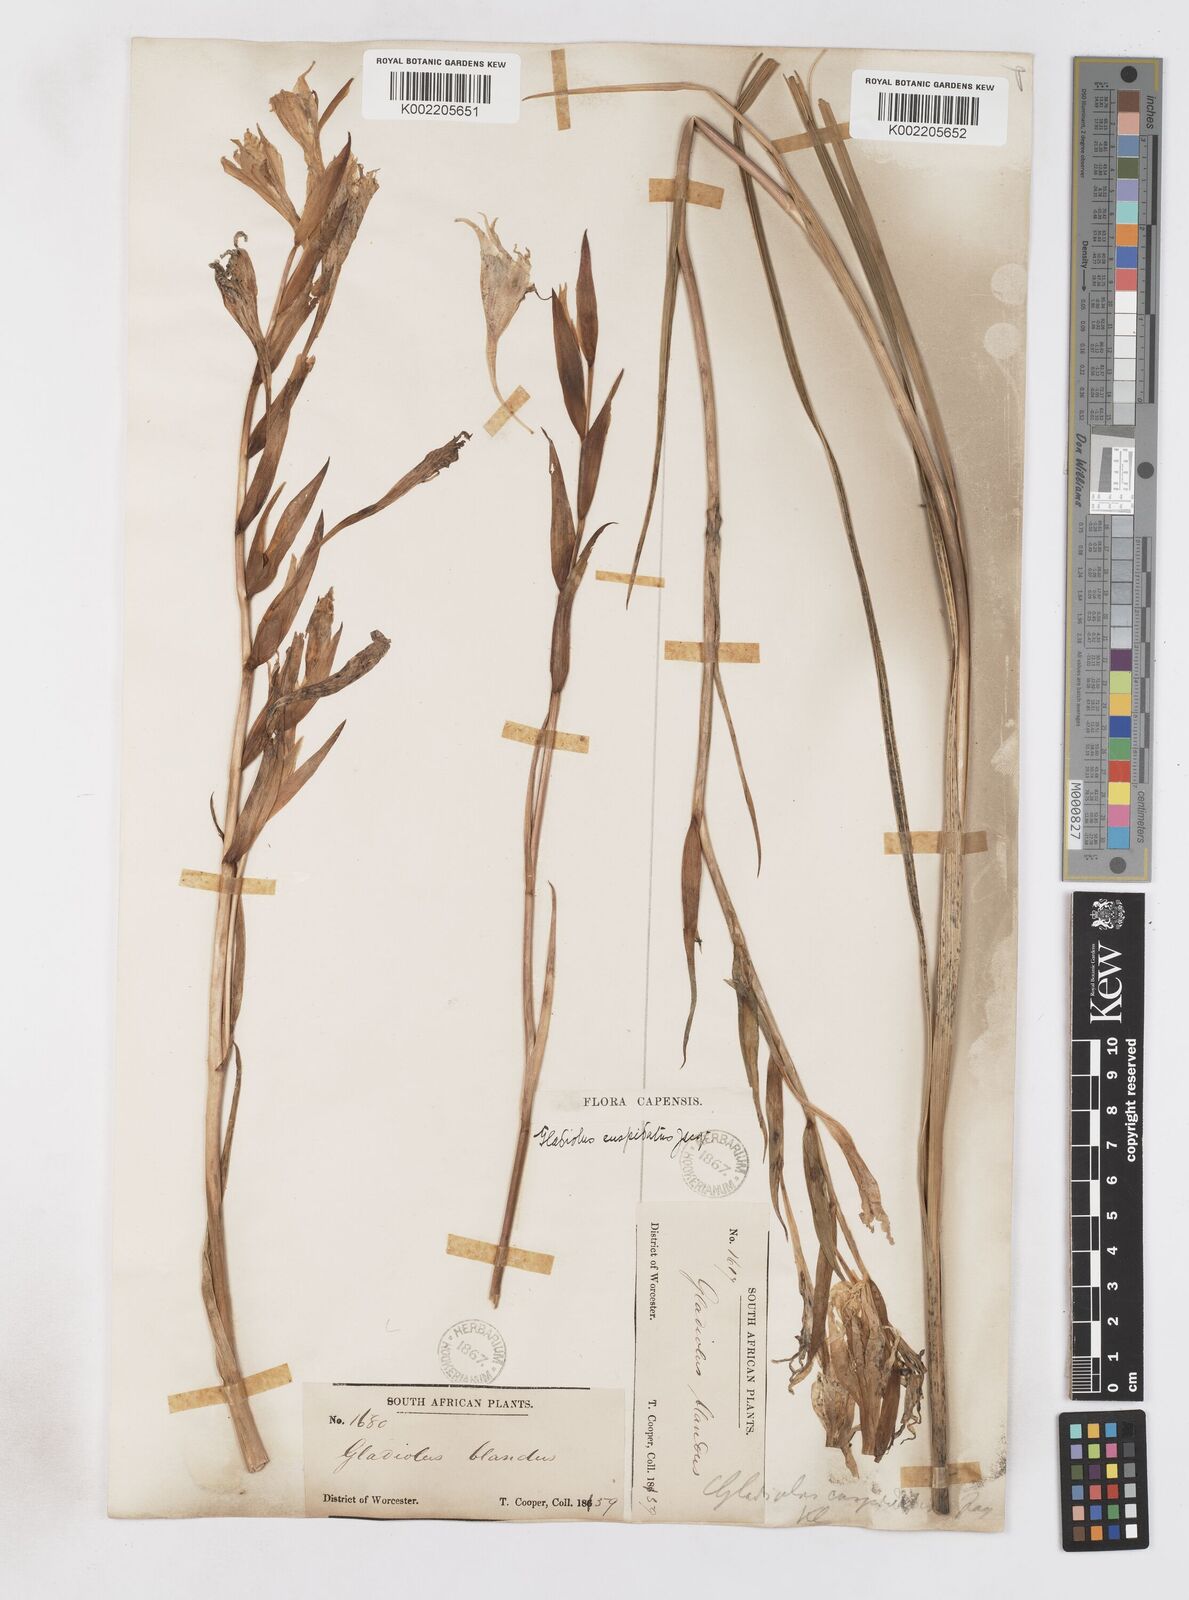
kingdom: Plantae
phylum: Tracheophyta
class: Liliopsida
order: Asparagales
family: Iridaceae
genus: Gladiolus
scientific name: Gladiolus undulatus
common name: Large painted-lady
